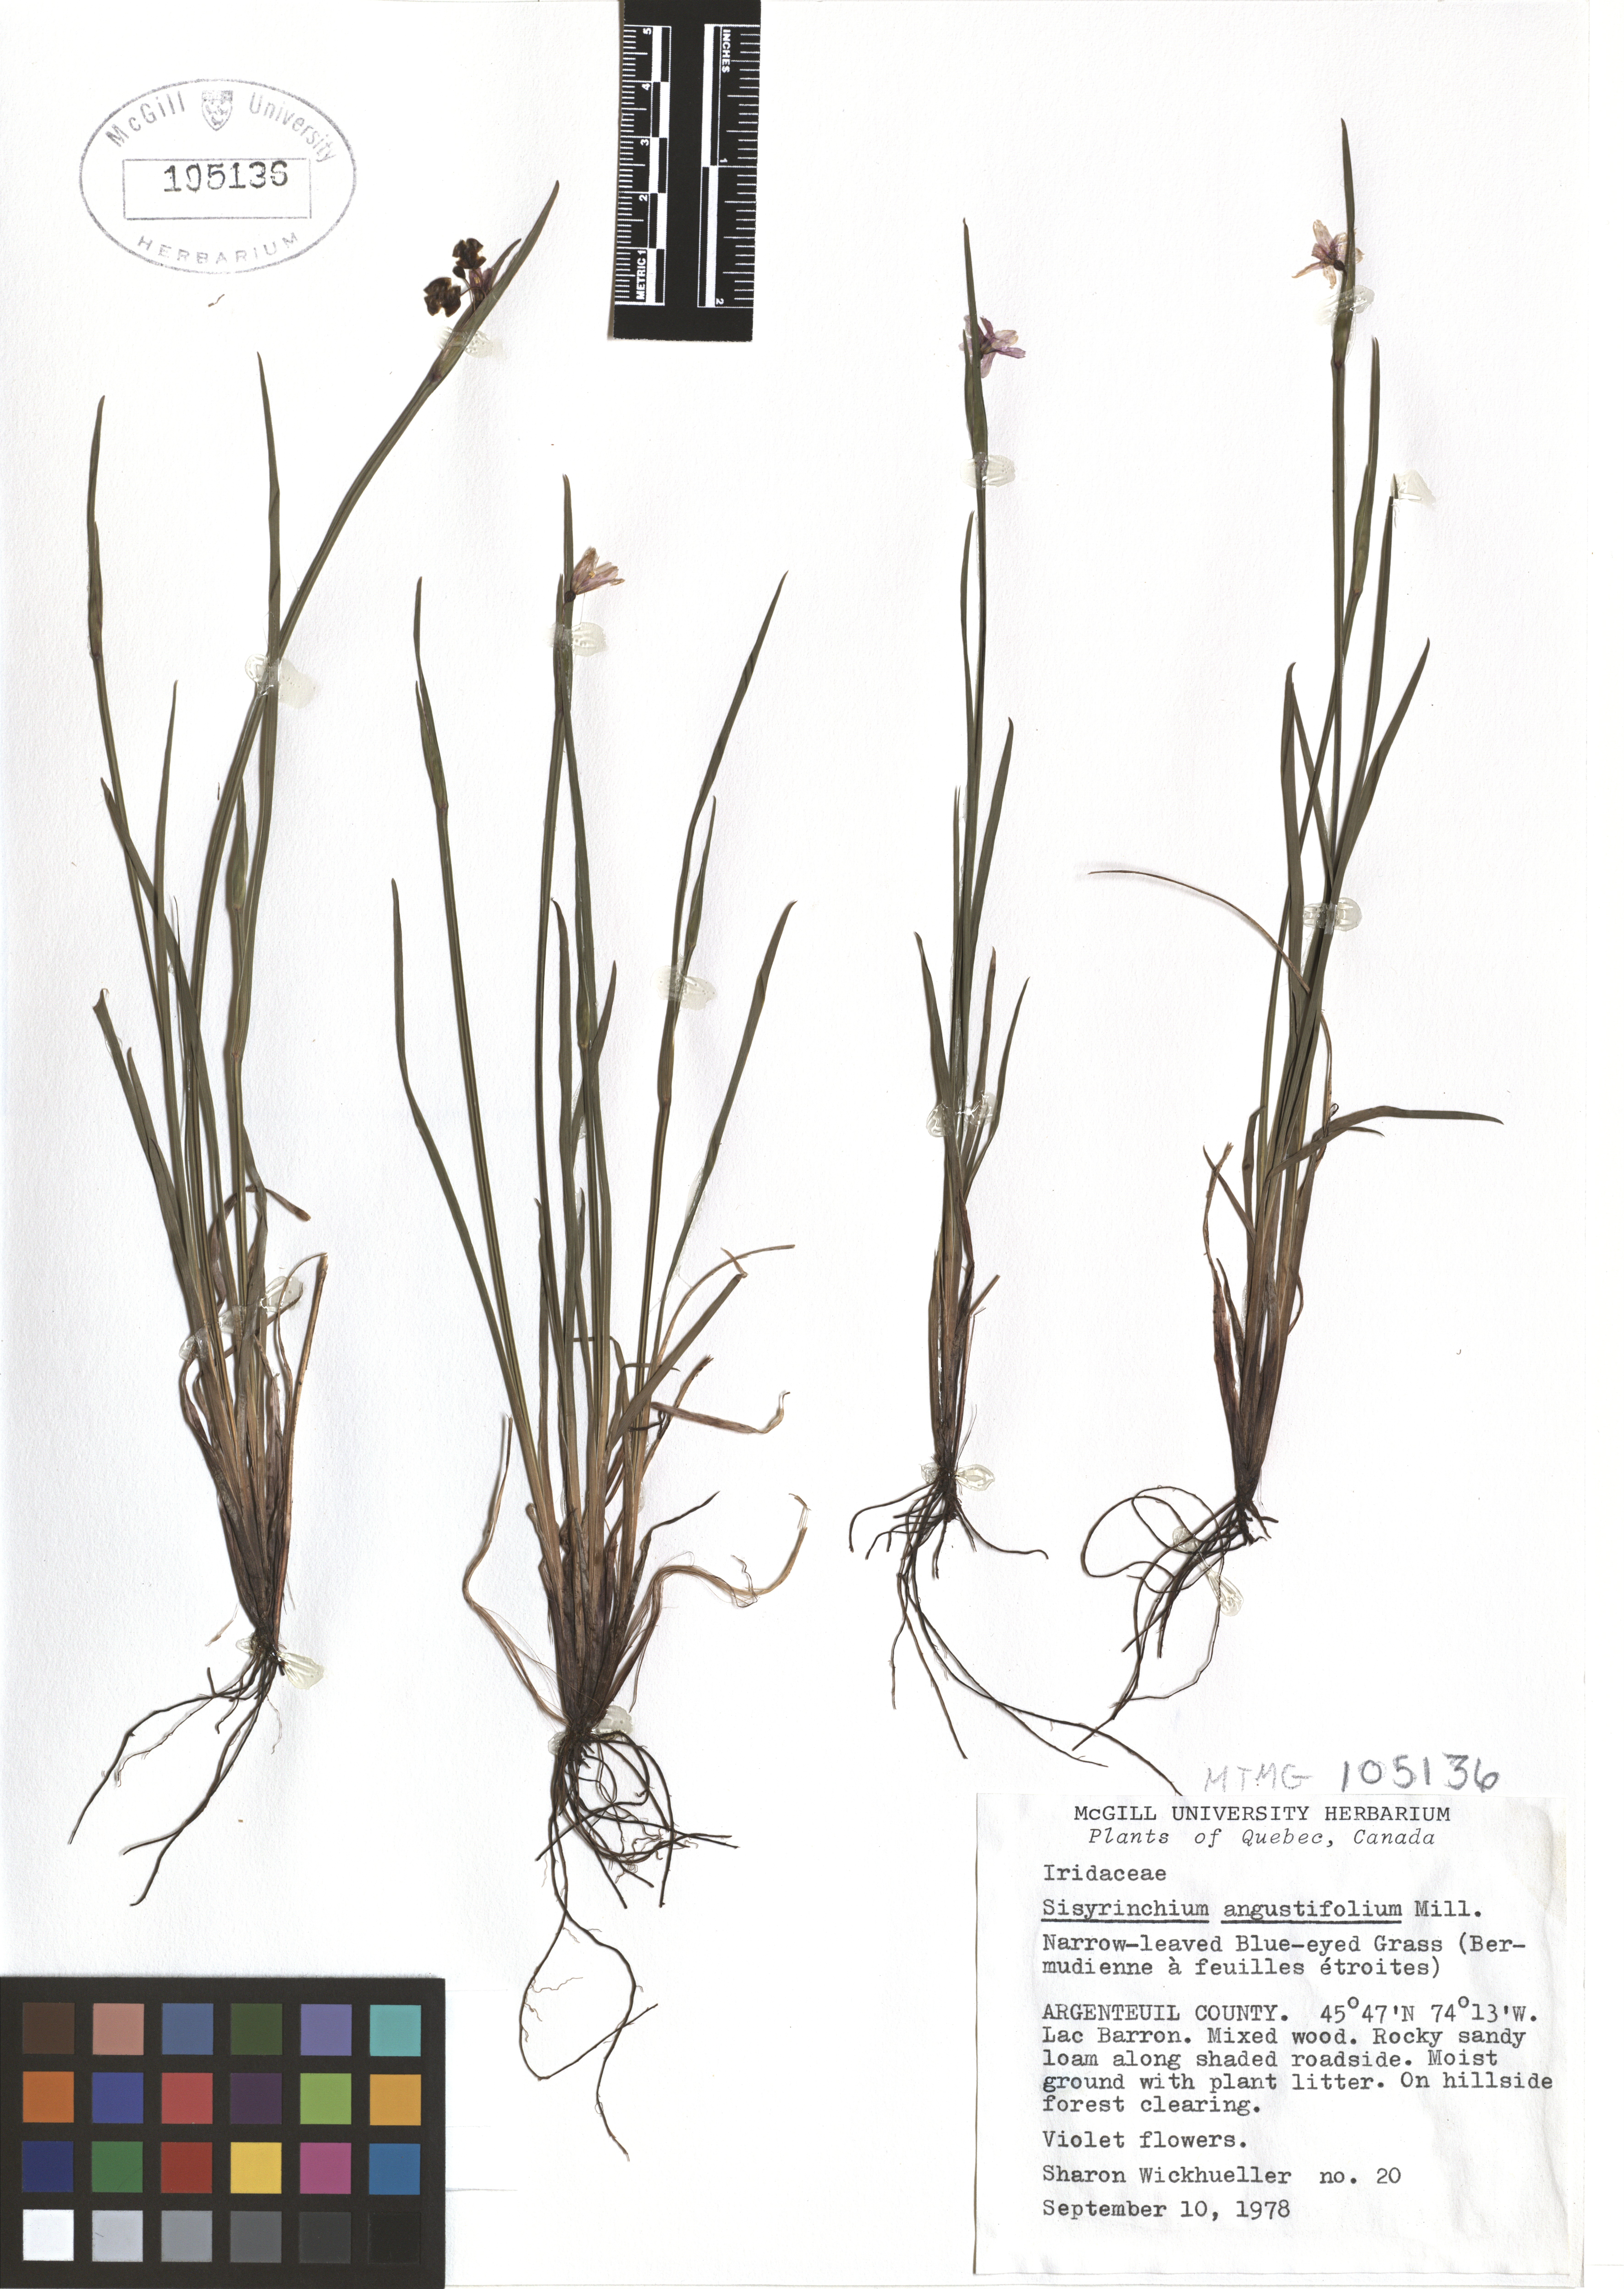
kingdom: Plantae
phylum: Tracheophyta
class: Liliopsida
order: Asparagales
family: Iridaceae
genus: Sisyrinchium
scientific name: Sisyrinchium angustifolium
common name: Narrow-leaf blue-eyed-grass
